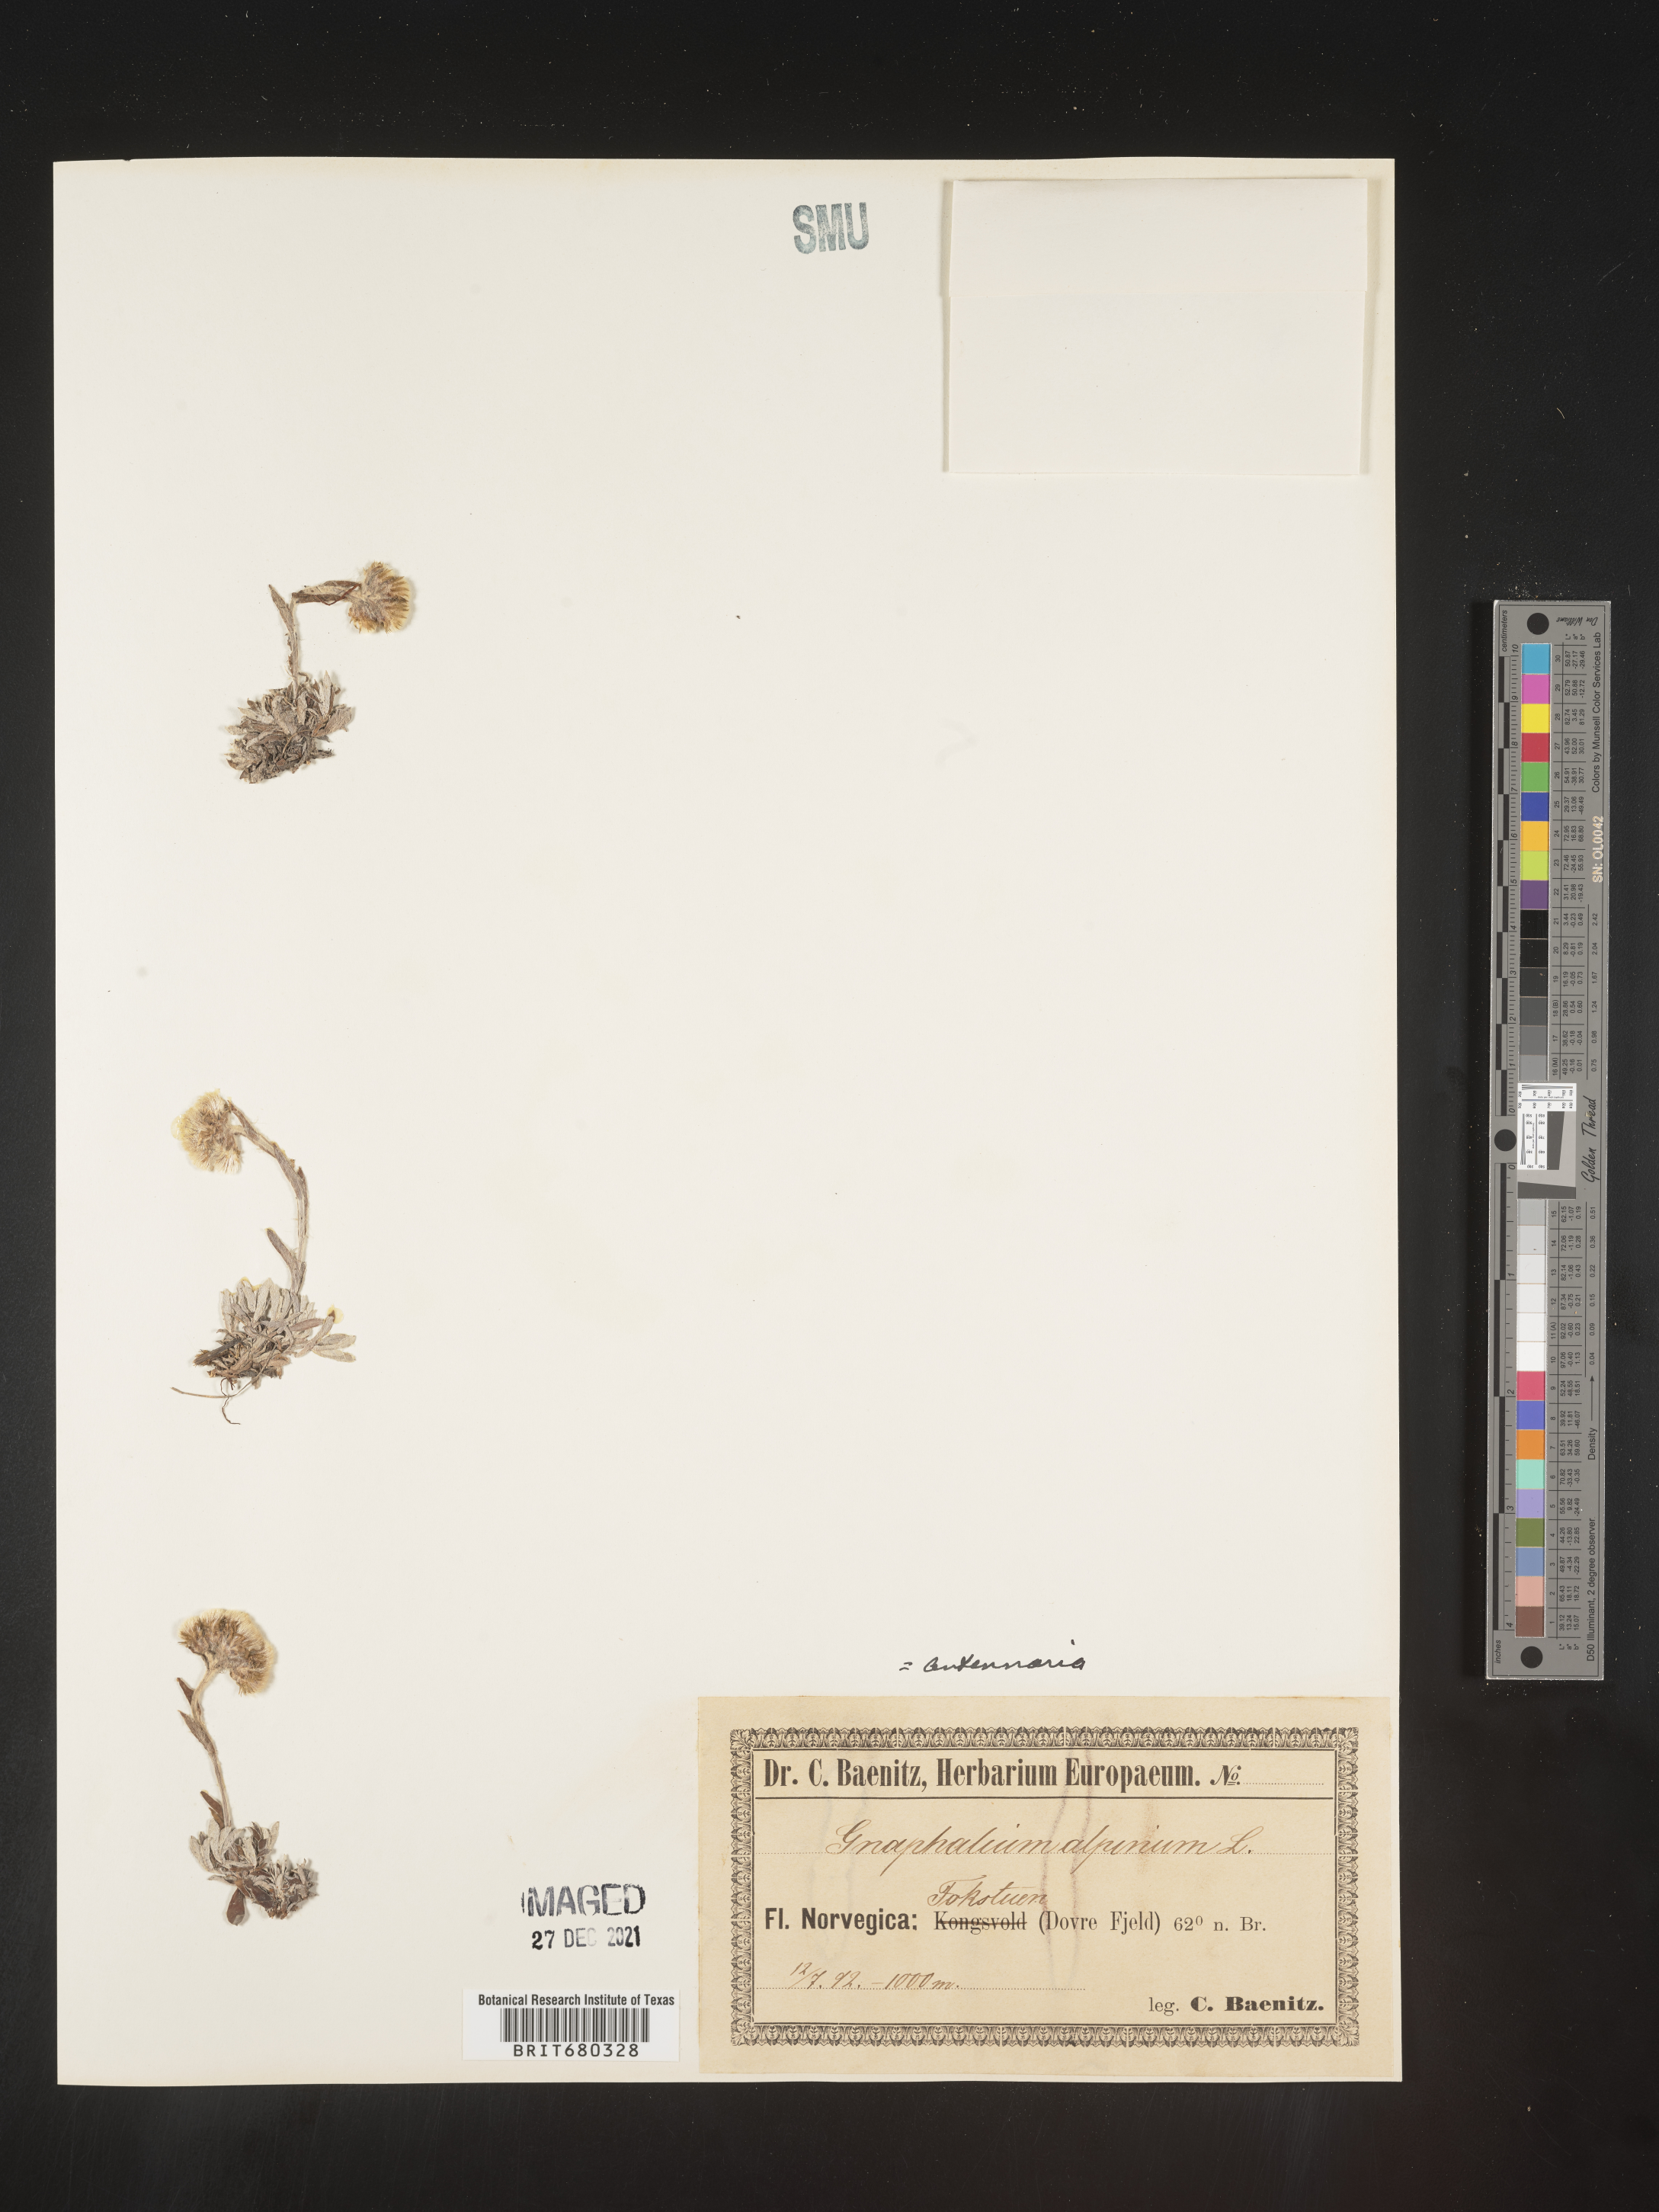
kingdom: Plantae
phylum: Tracheophyta
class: Magnoliopsida
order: Asterales
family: Asteraceae
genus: Antennaria
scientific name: Antennaria
